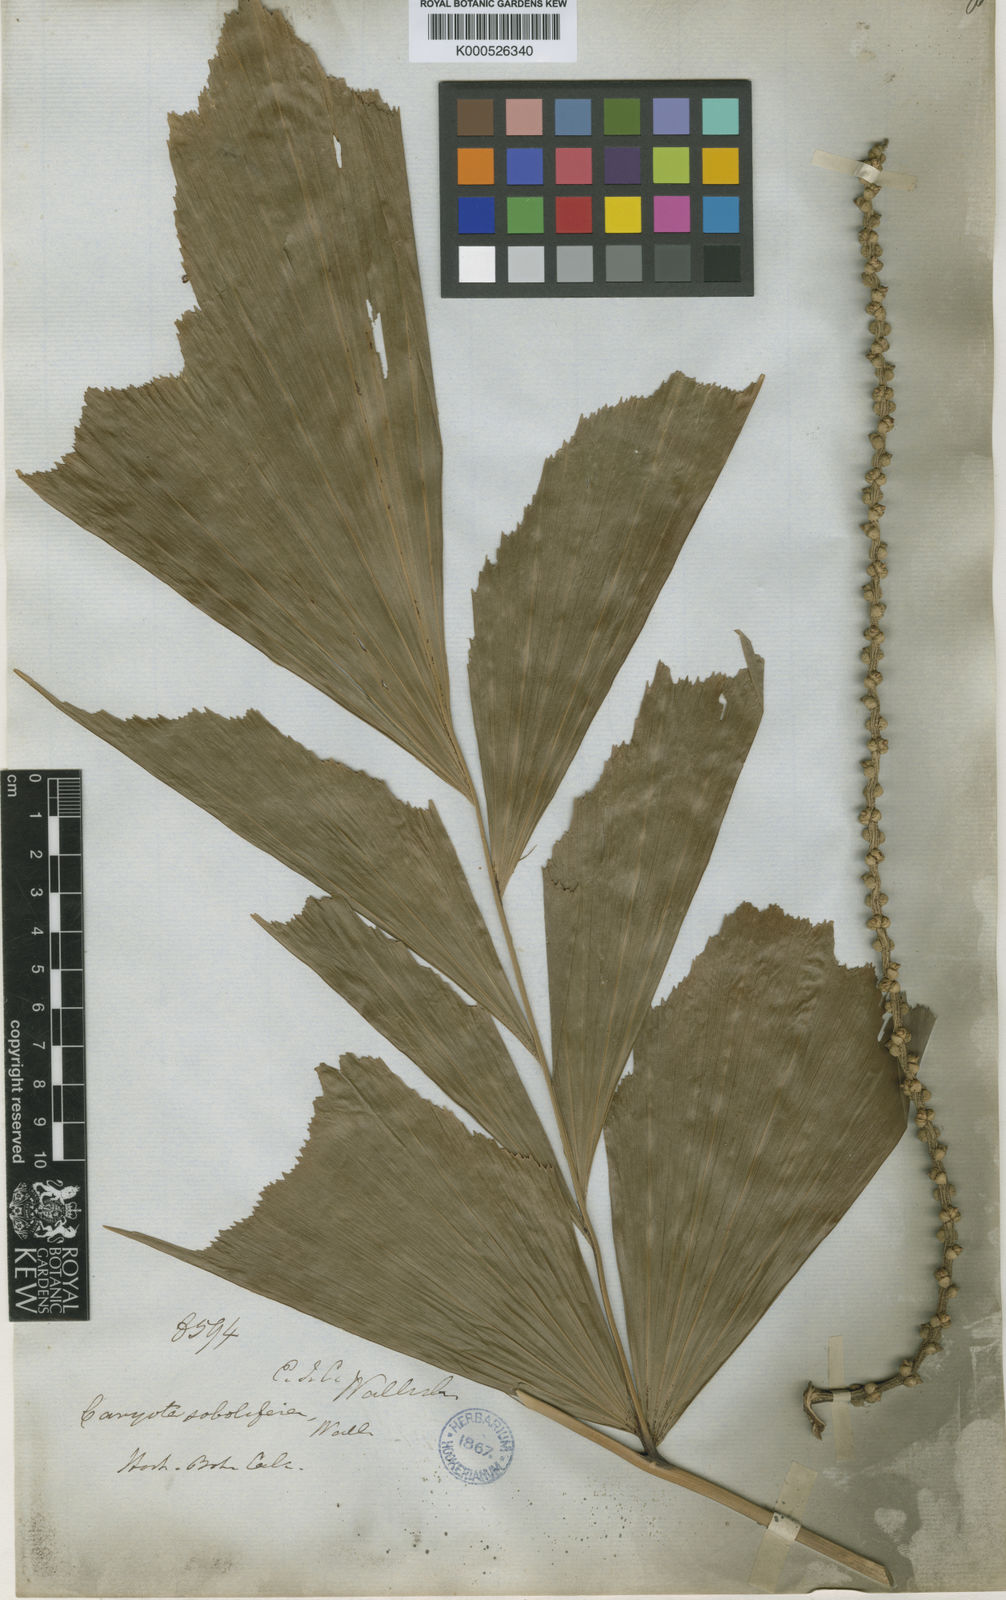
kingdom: Plantae
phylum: Tracheophyta
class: Liliopsida
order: Arecales
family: Arecaceae
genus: Caryota
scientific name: Caryota mitis
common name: Burmese fishtail palm
